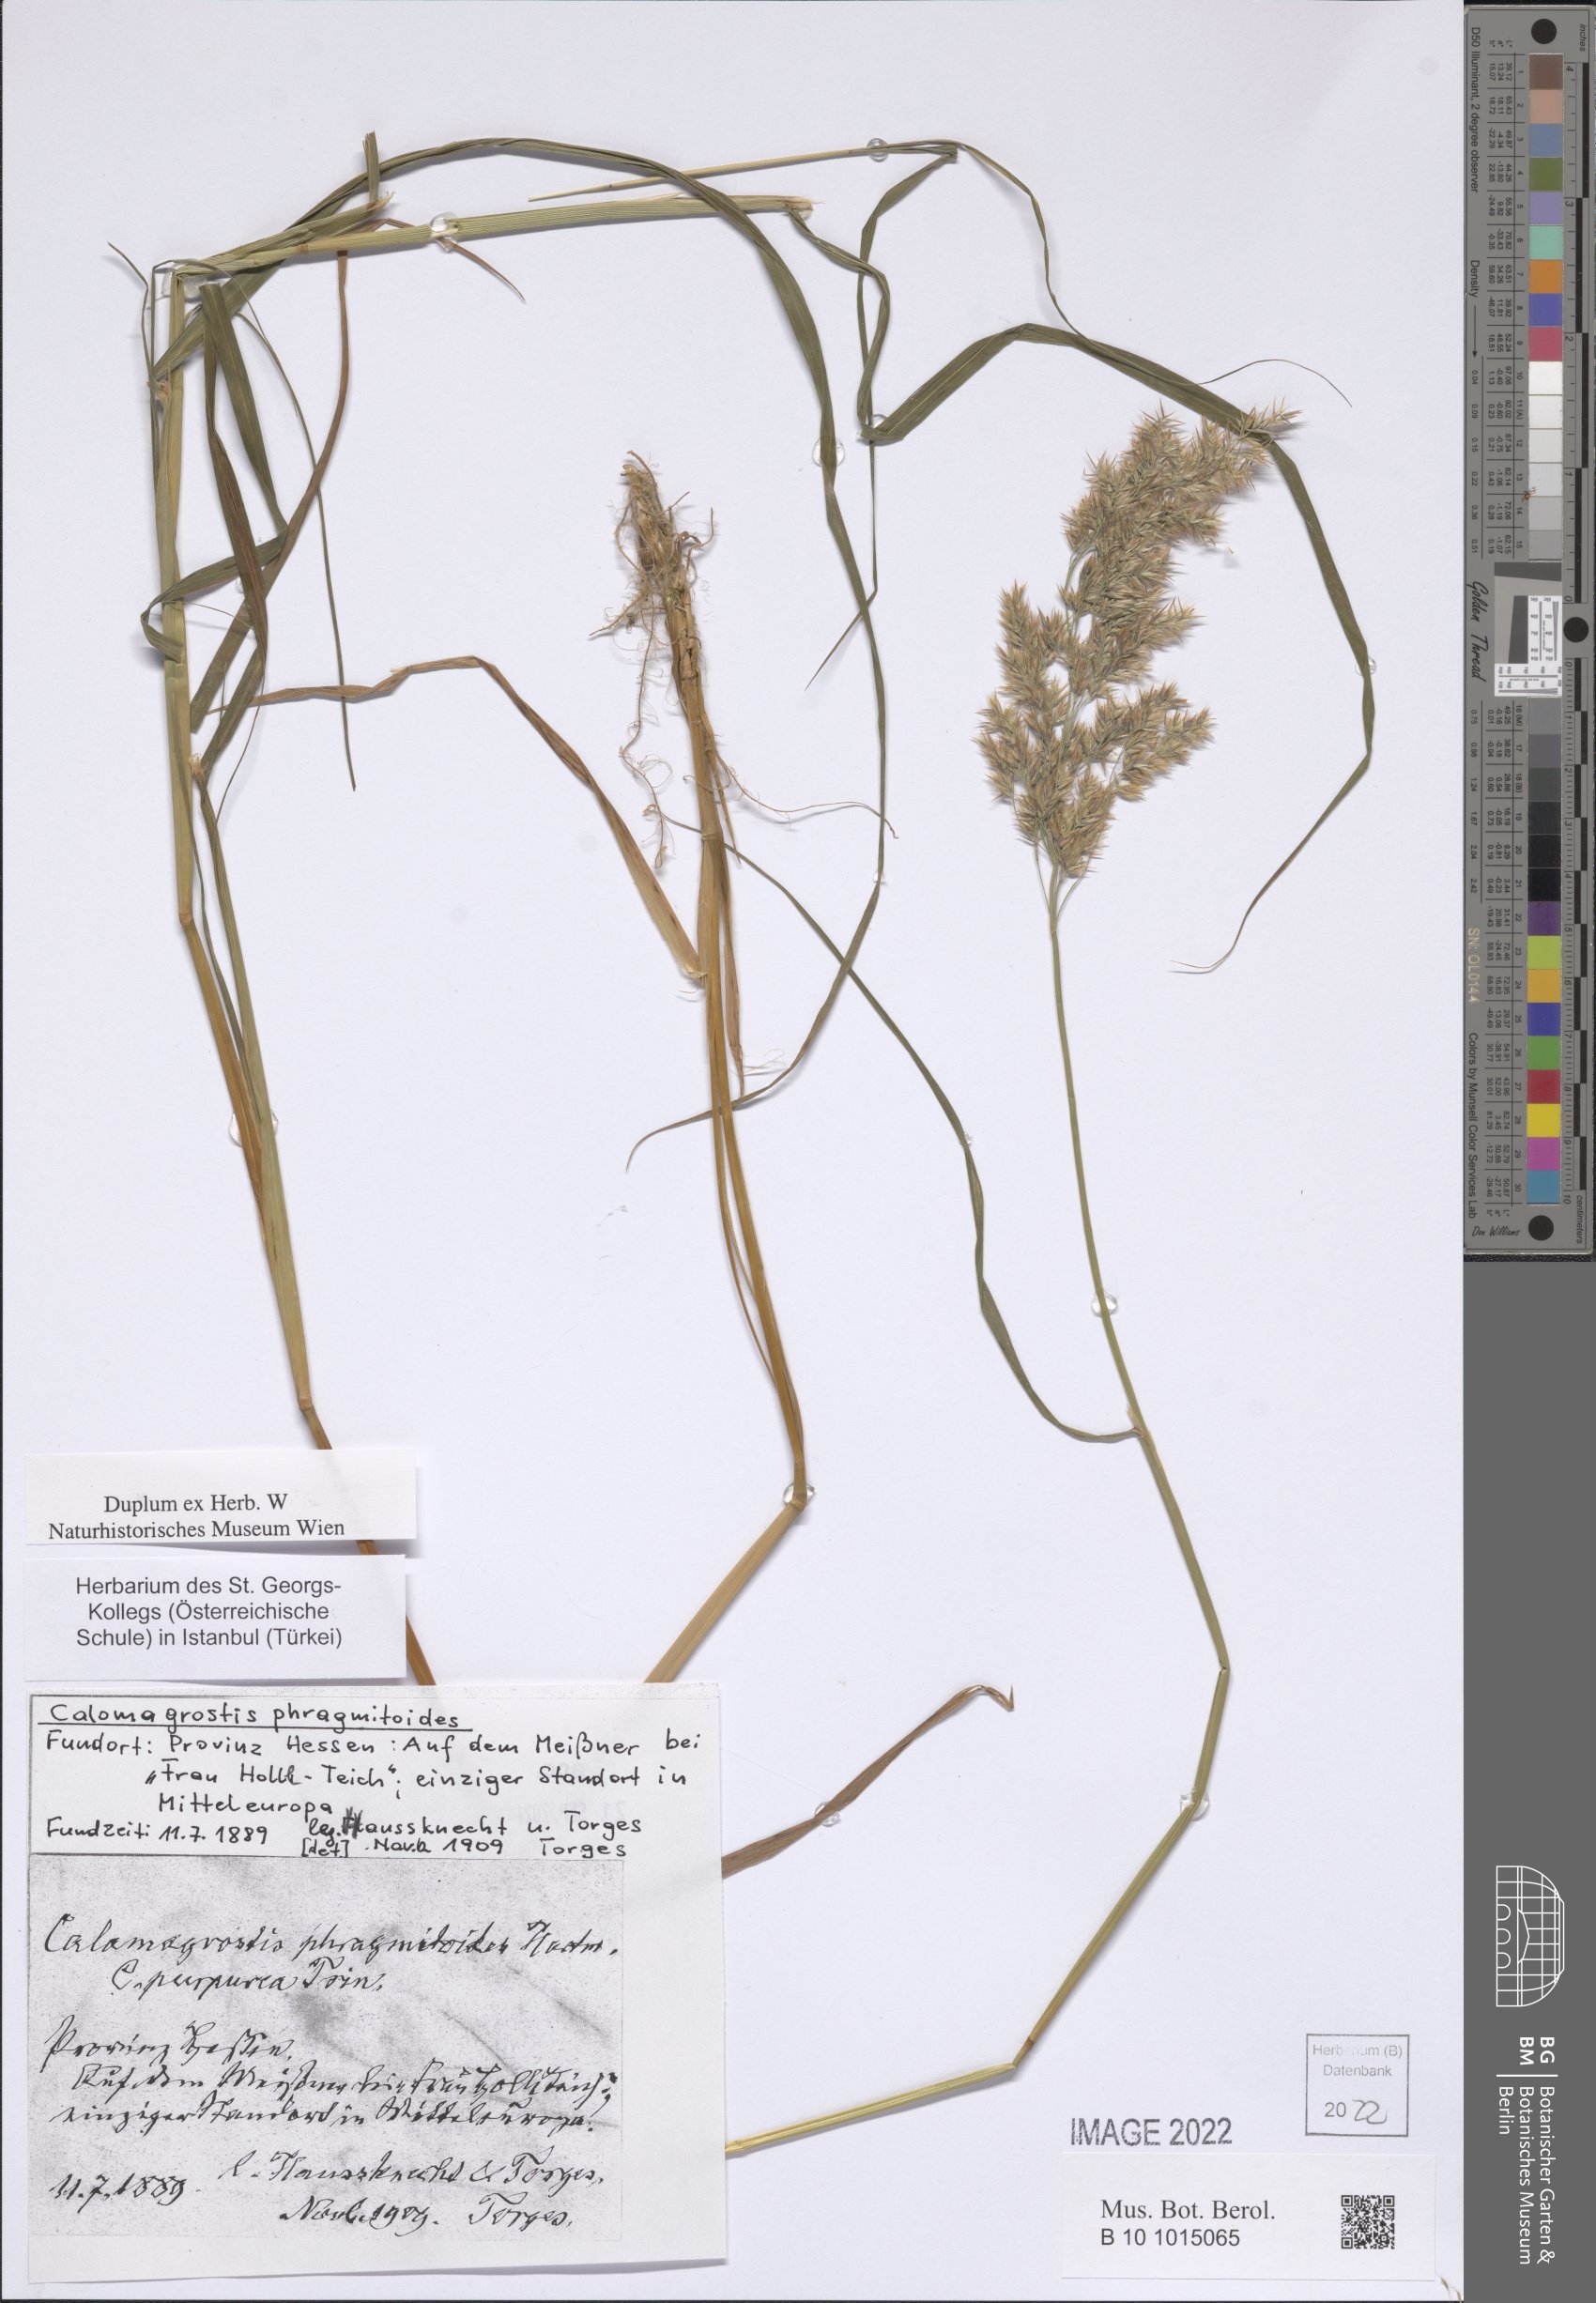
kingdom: Plantae
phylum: Tracheophyta
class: Liliopsida
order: Poales
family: Poaceae
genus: Calamagrostis
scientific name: Calamagrostis purpurea
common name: Scandinavian small-reed
